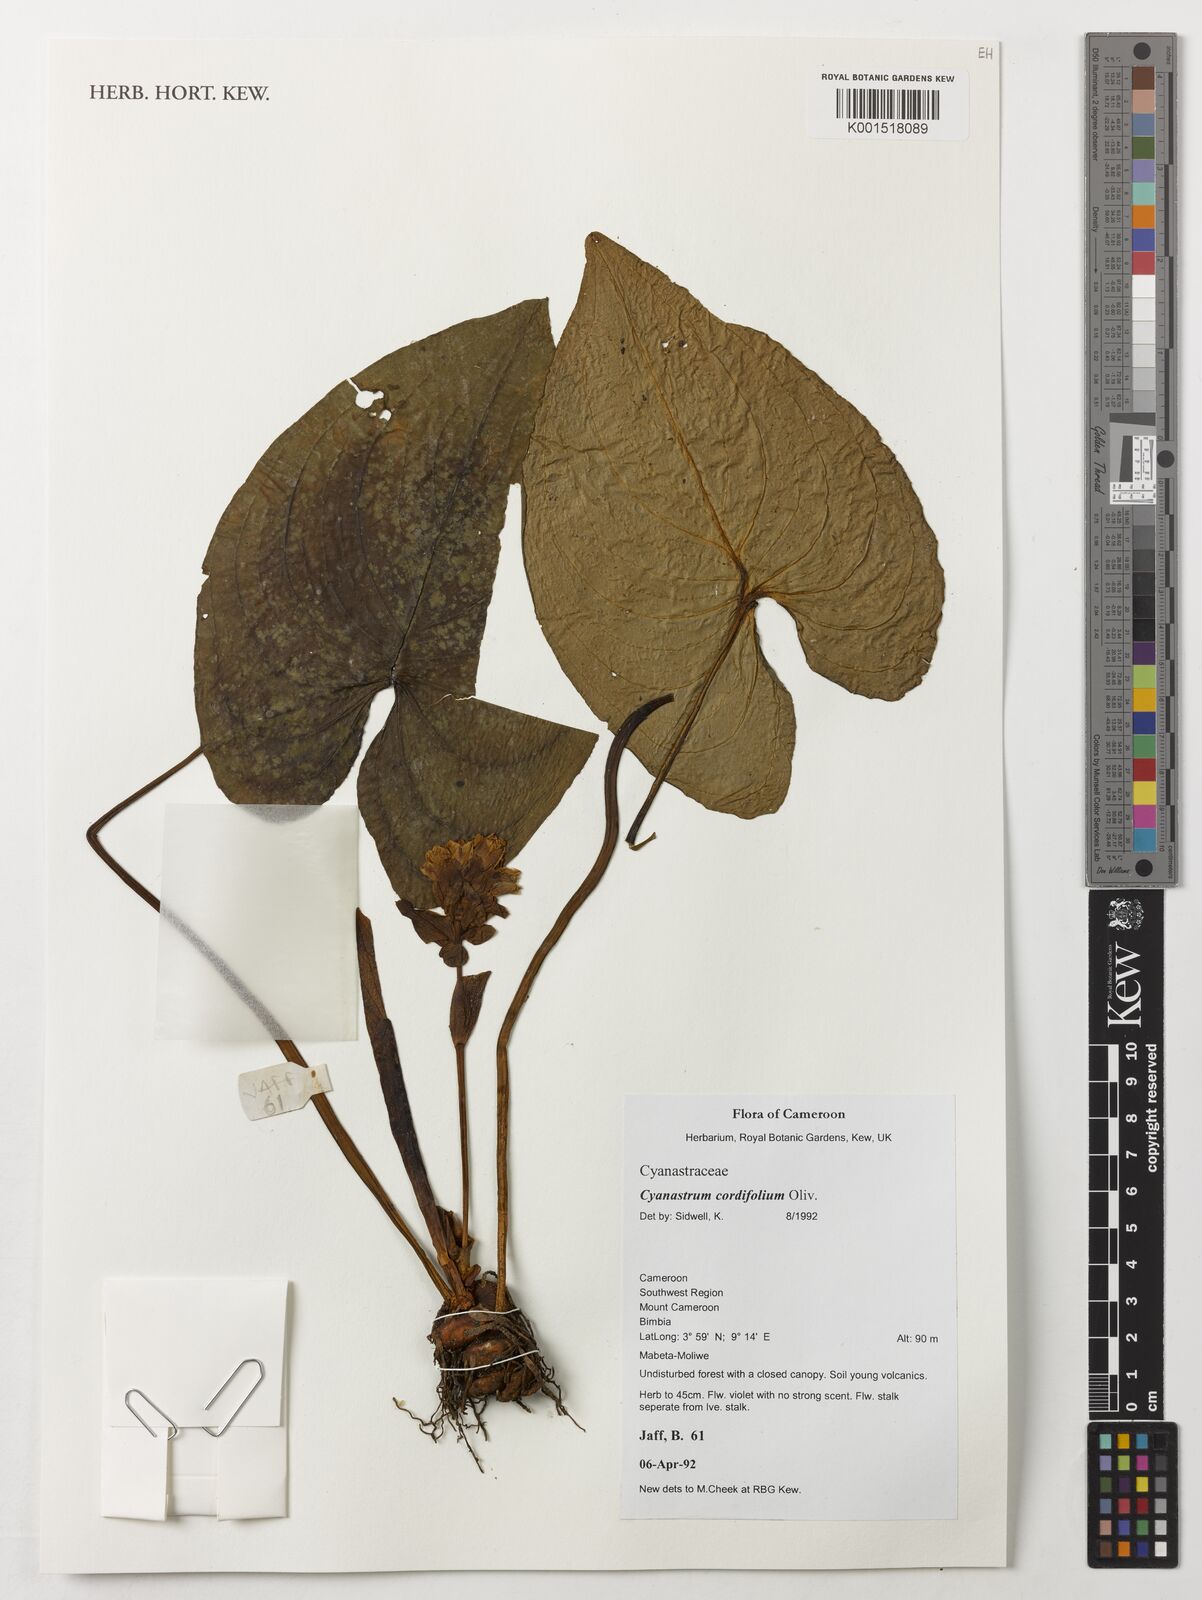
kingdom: Plantae
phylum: Tracheophyta
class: Liliopsida
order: Asparagales
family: Tecophilaeaceae
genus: Cyanastrum
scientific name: Cyanastrum cordifolium
